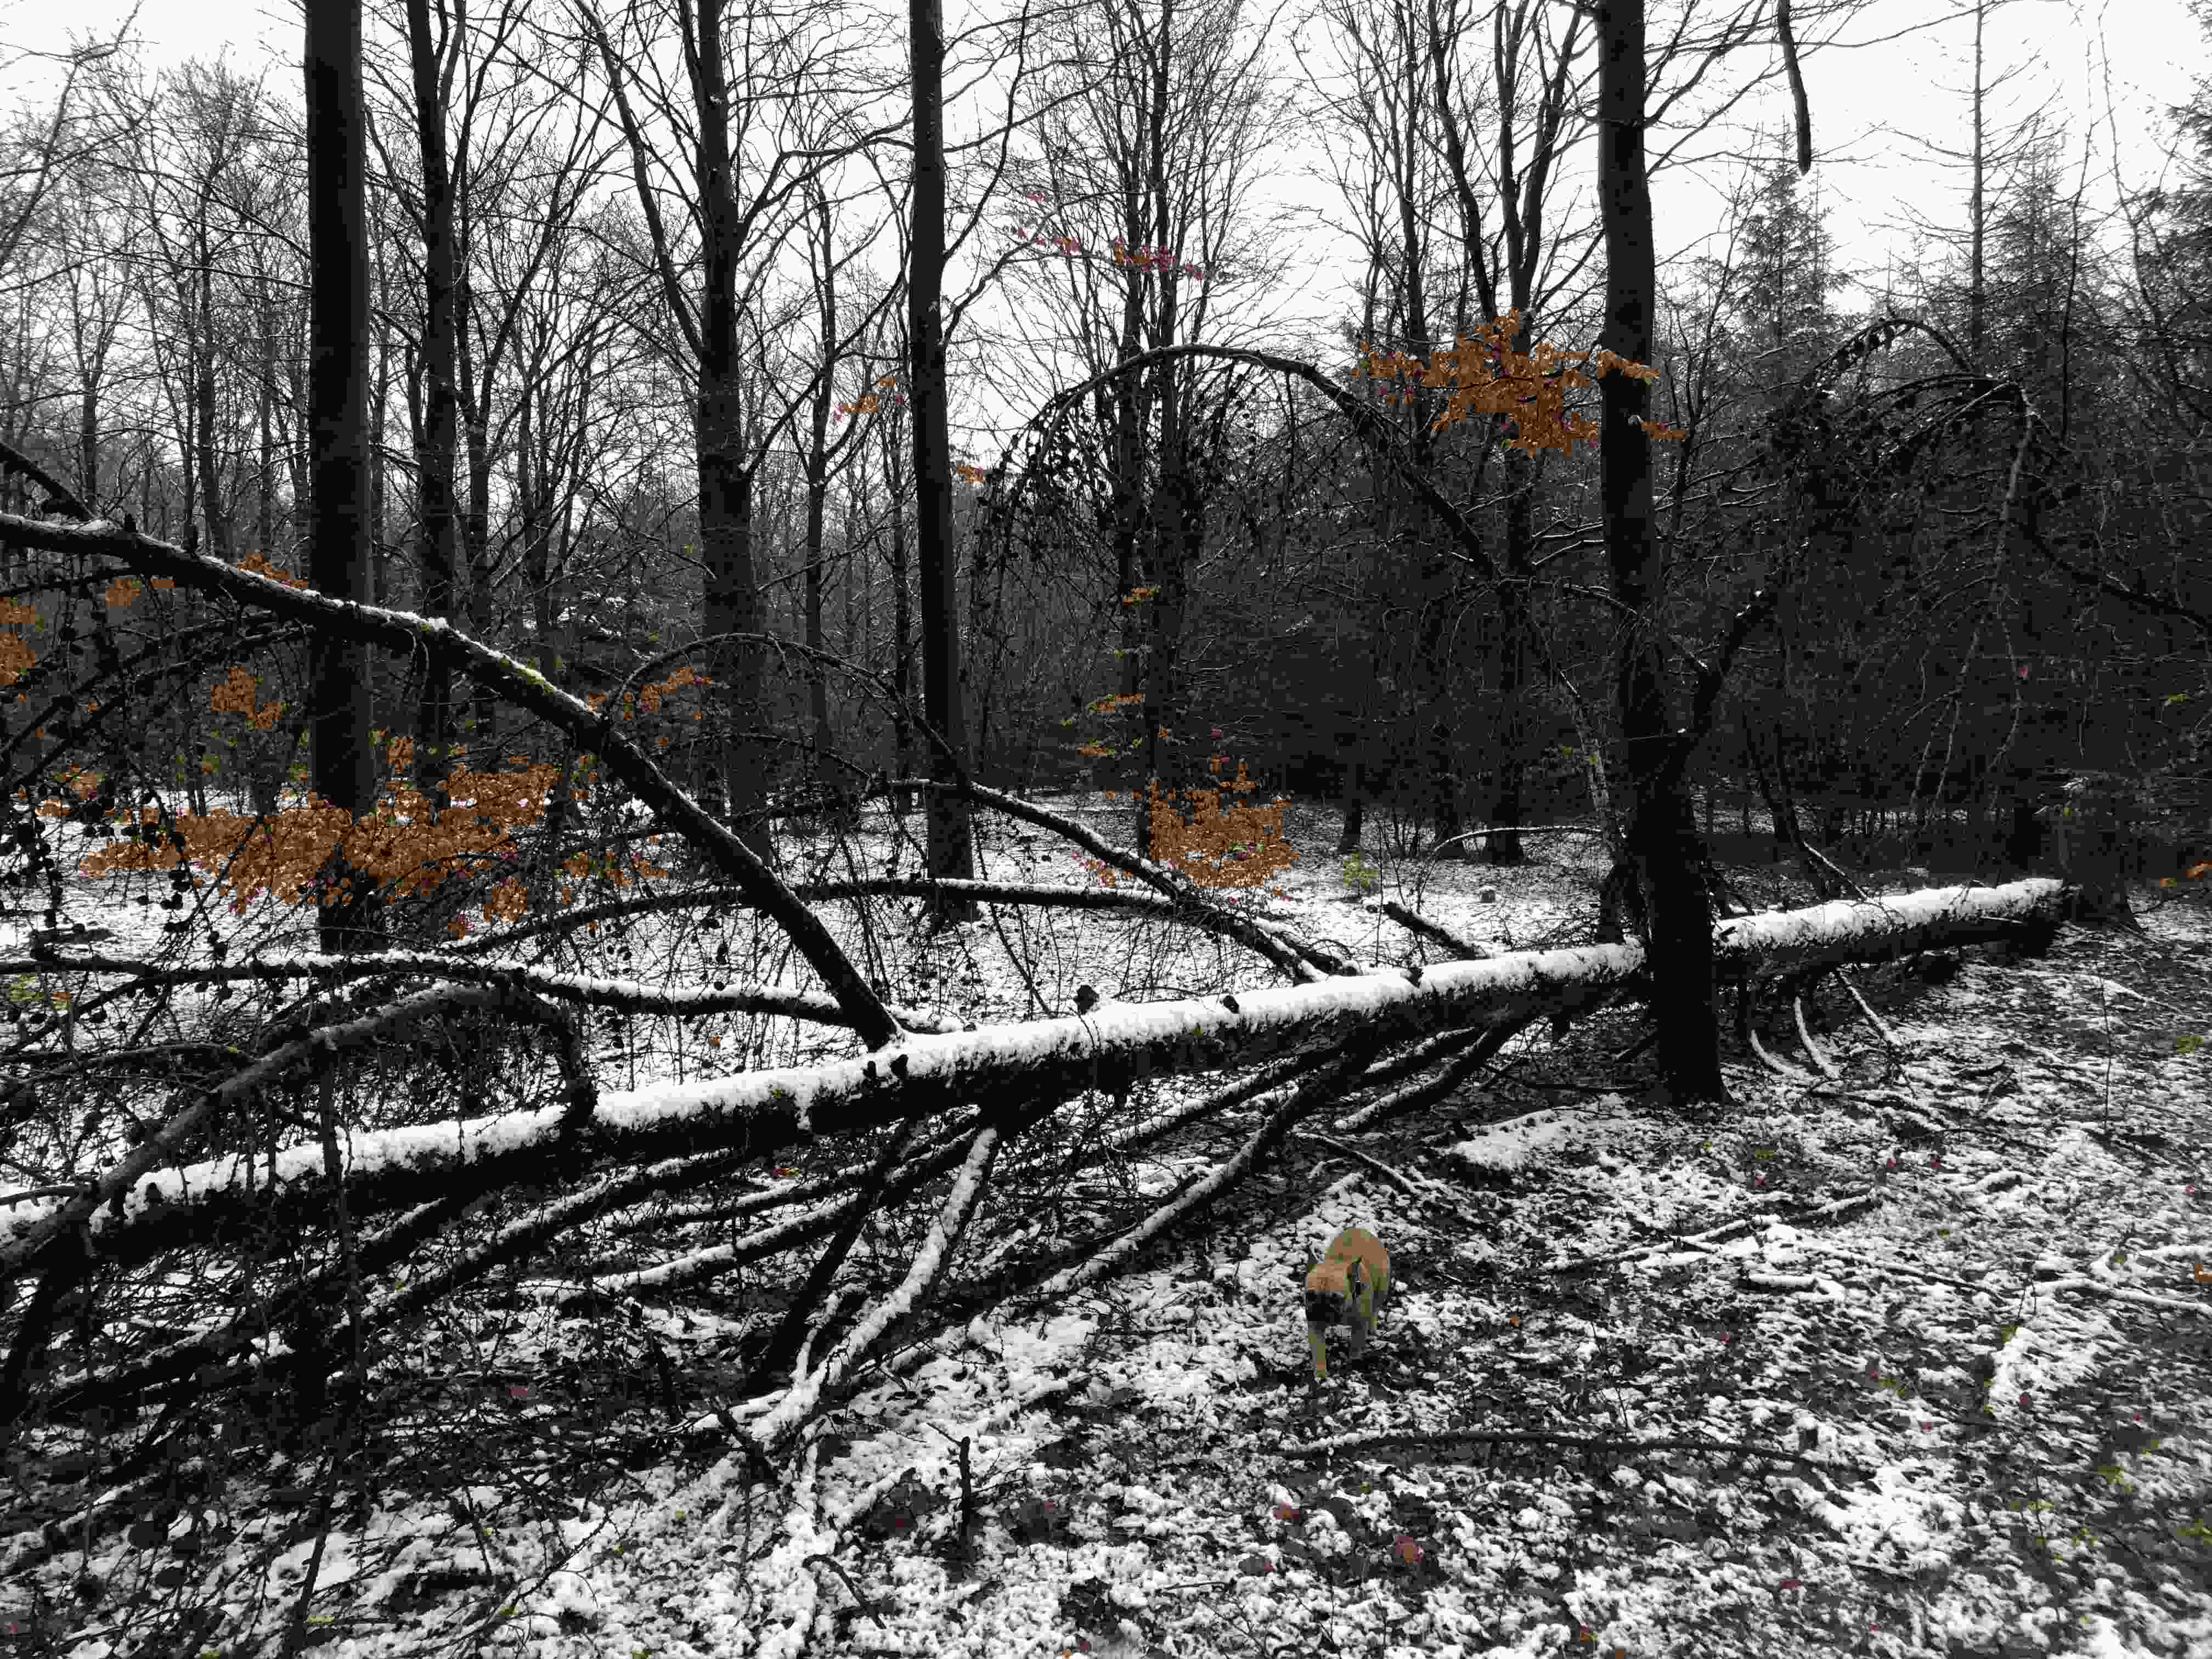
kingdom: Fungi
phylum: Basidiomycota
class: Agaricomycetes
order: Hymenochaetales
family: Schizoporaceae
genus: Xylodon
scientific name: Xylodon
